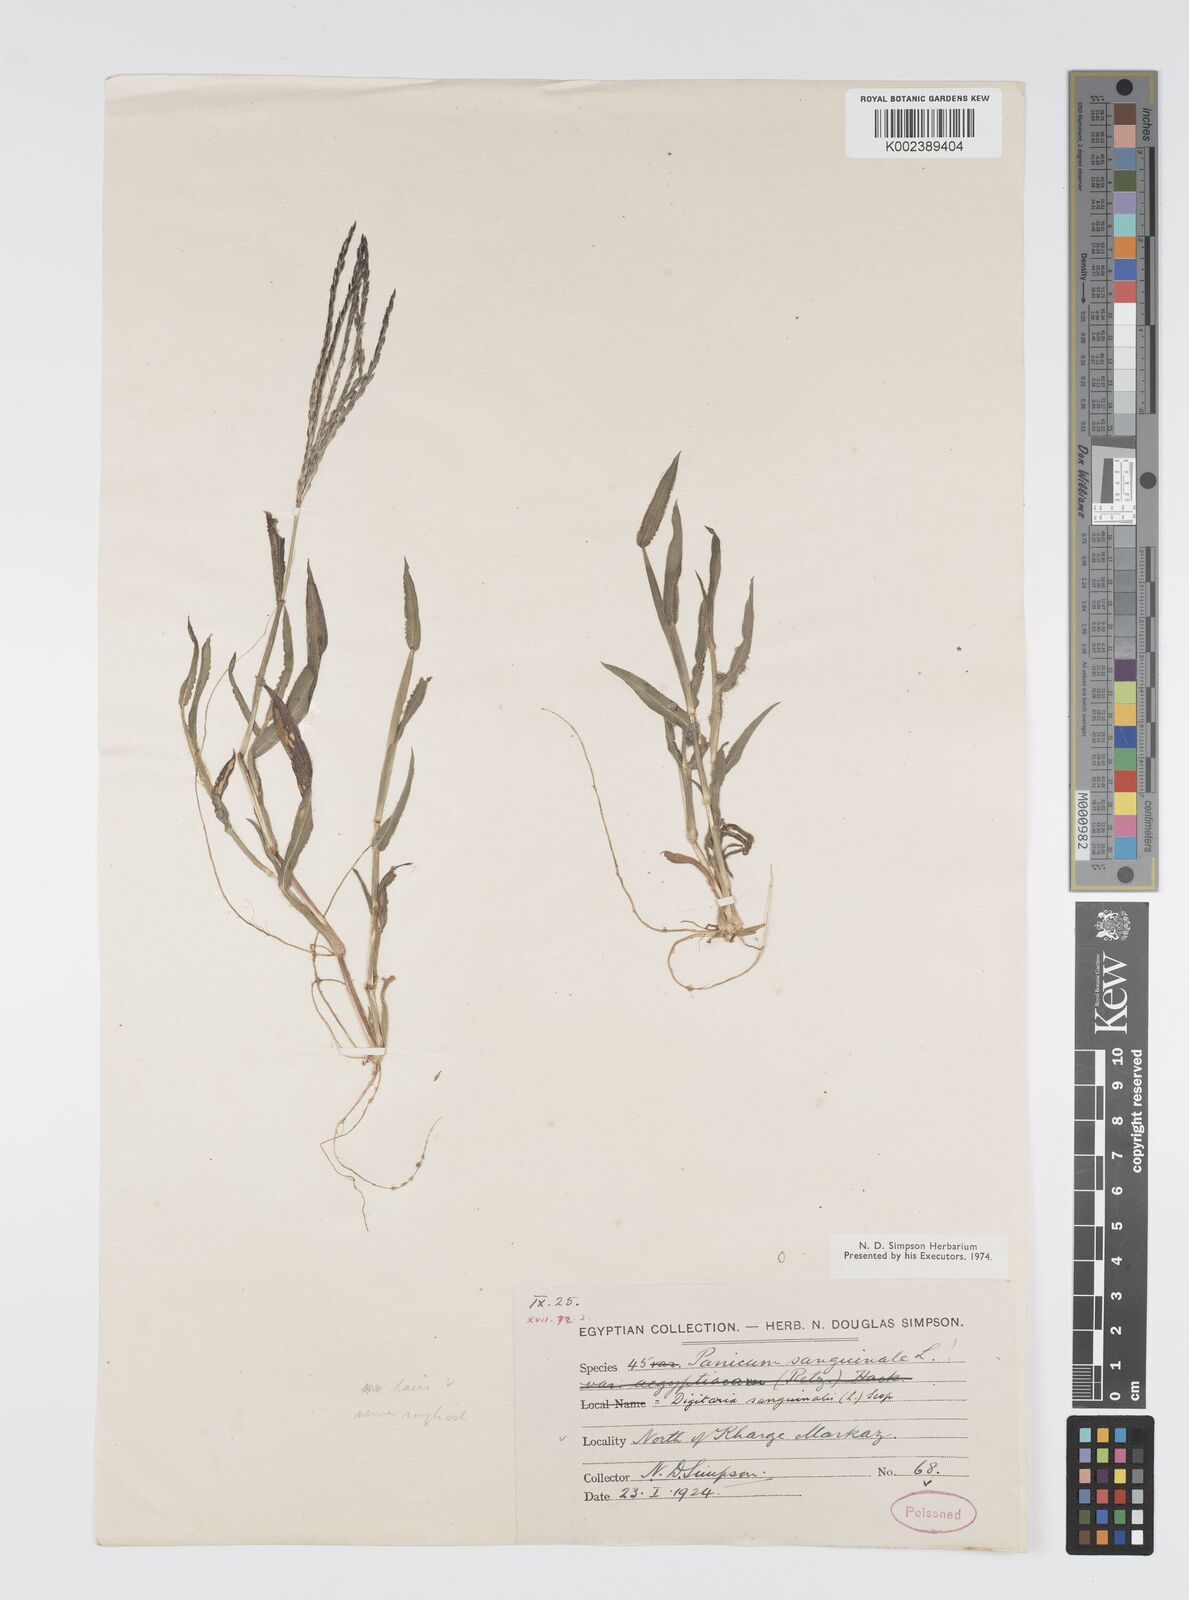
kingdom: Plantae
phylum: Tracheophyta
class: Liliopsida
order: Poales
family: Poaceae
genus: Digitaria
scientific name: Digitaria sanguinalis
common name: Hairy crabgrass
